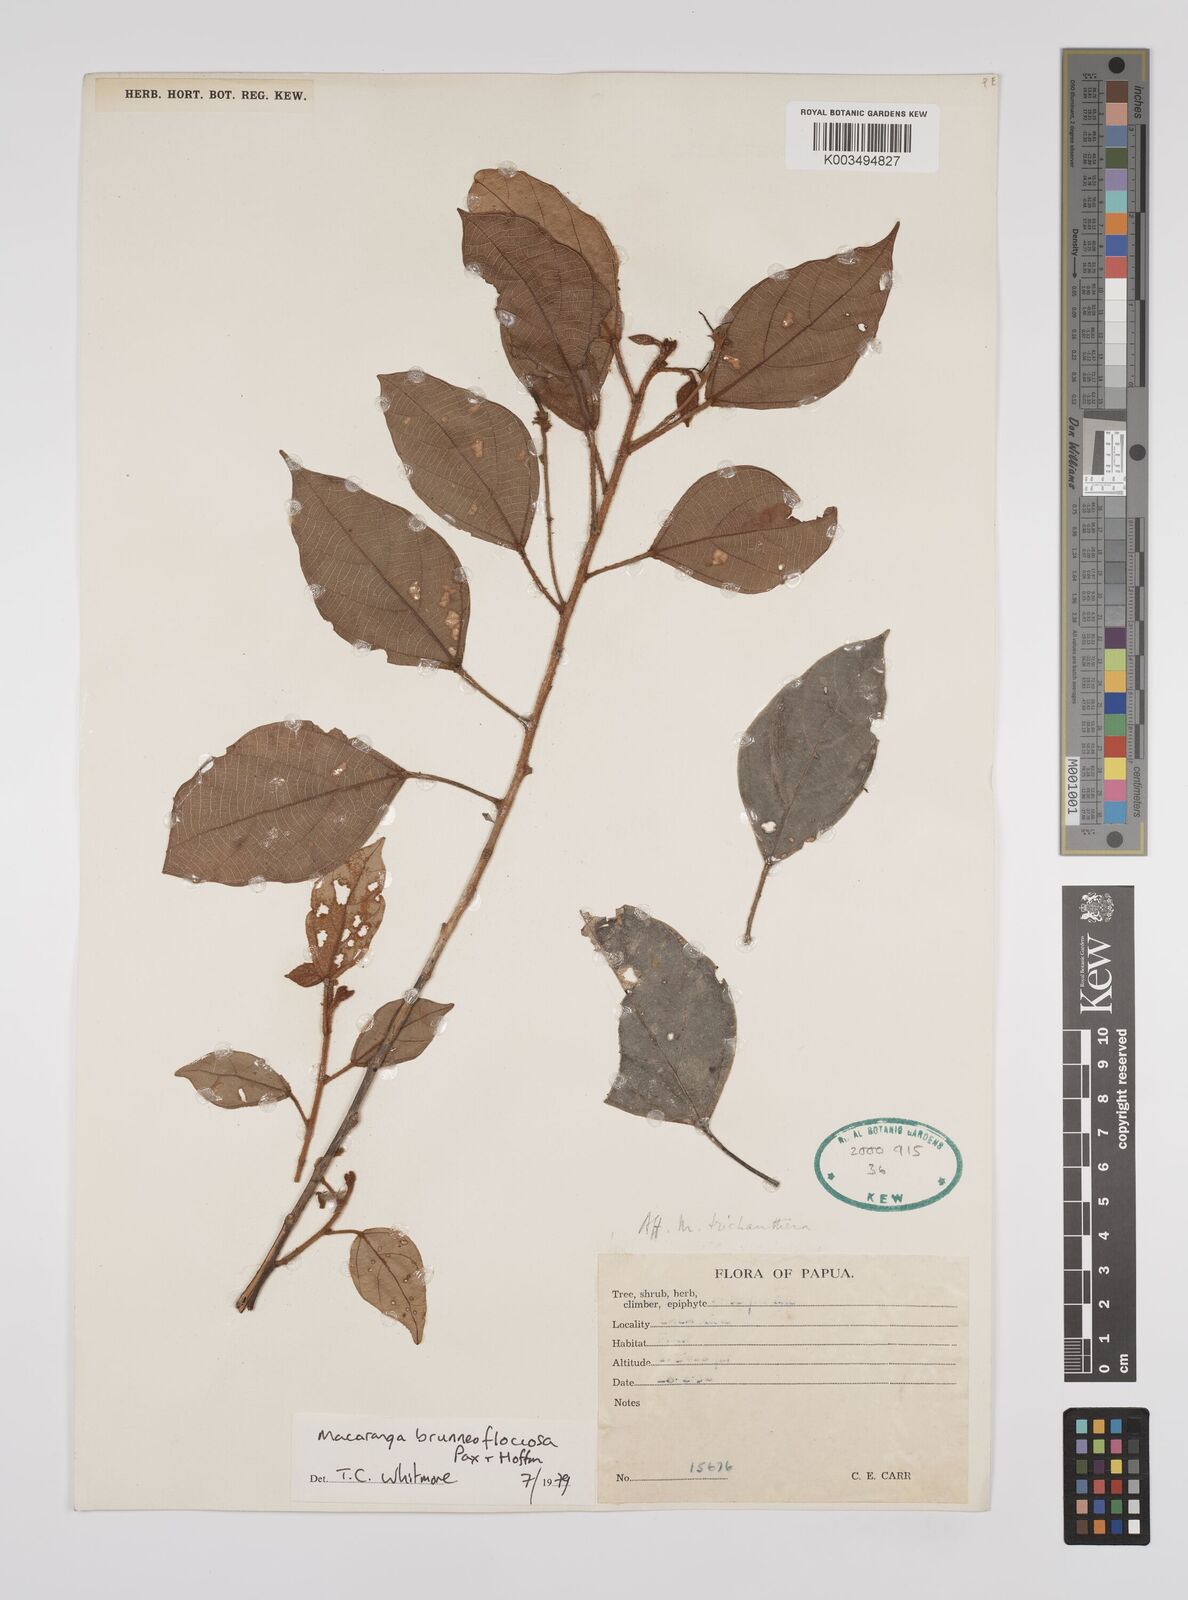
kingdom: Plantae
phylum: Tracheophyta
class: Magnoliopsida
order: Malpighiales
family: Euphorbiaceae
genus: Macaranga
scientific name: Macaranga brunneofloccosa
